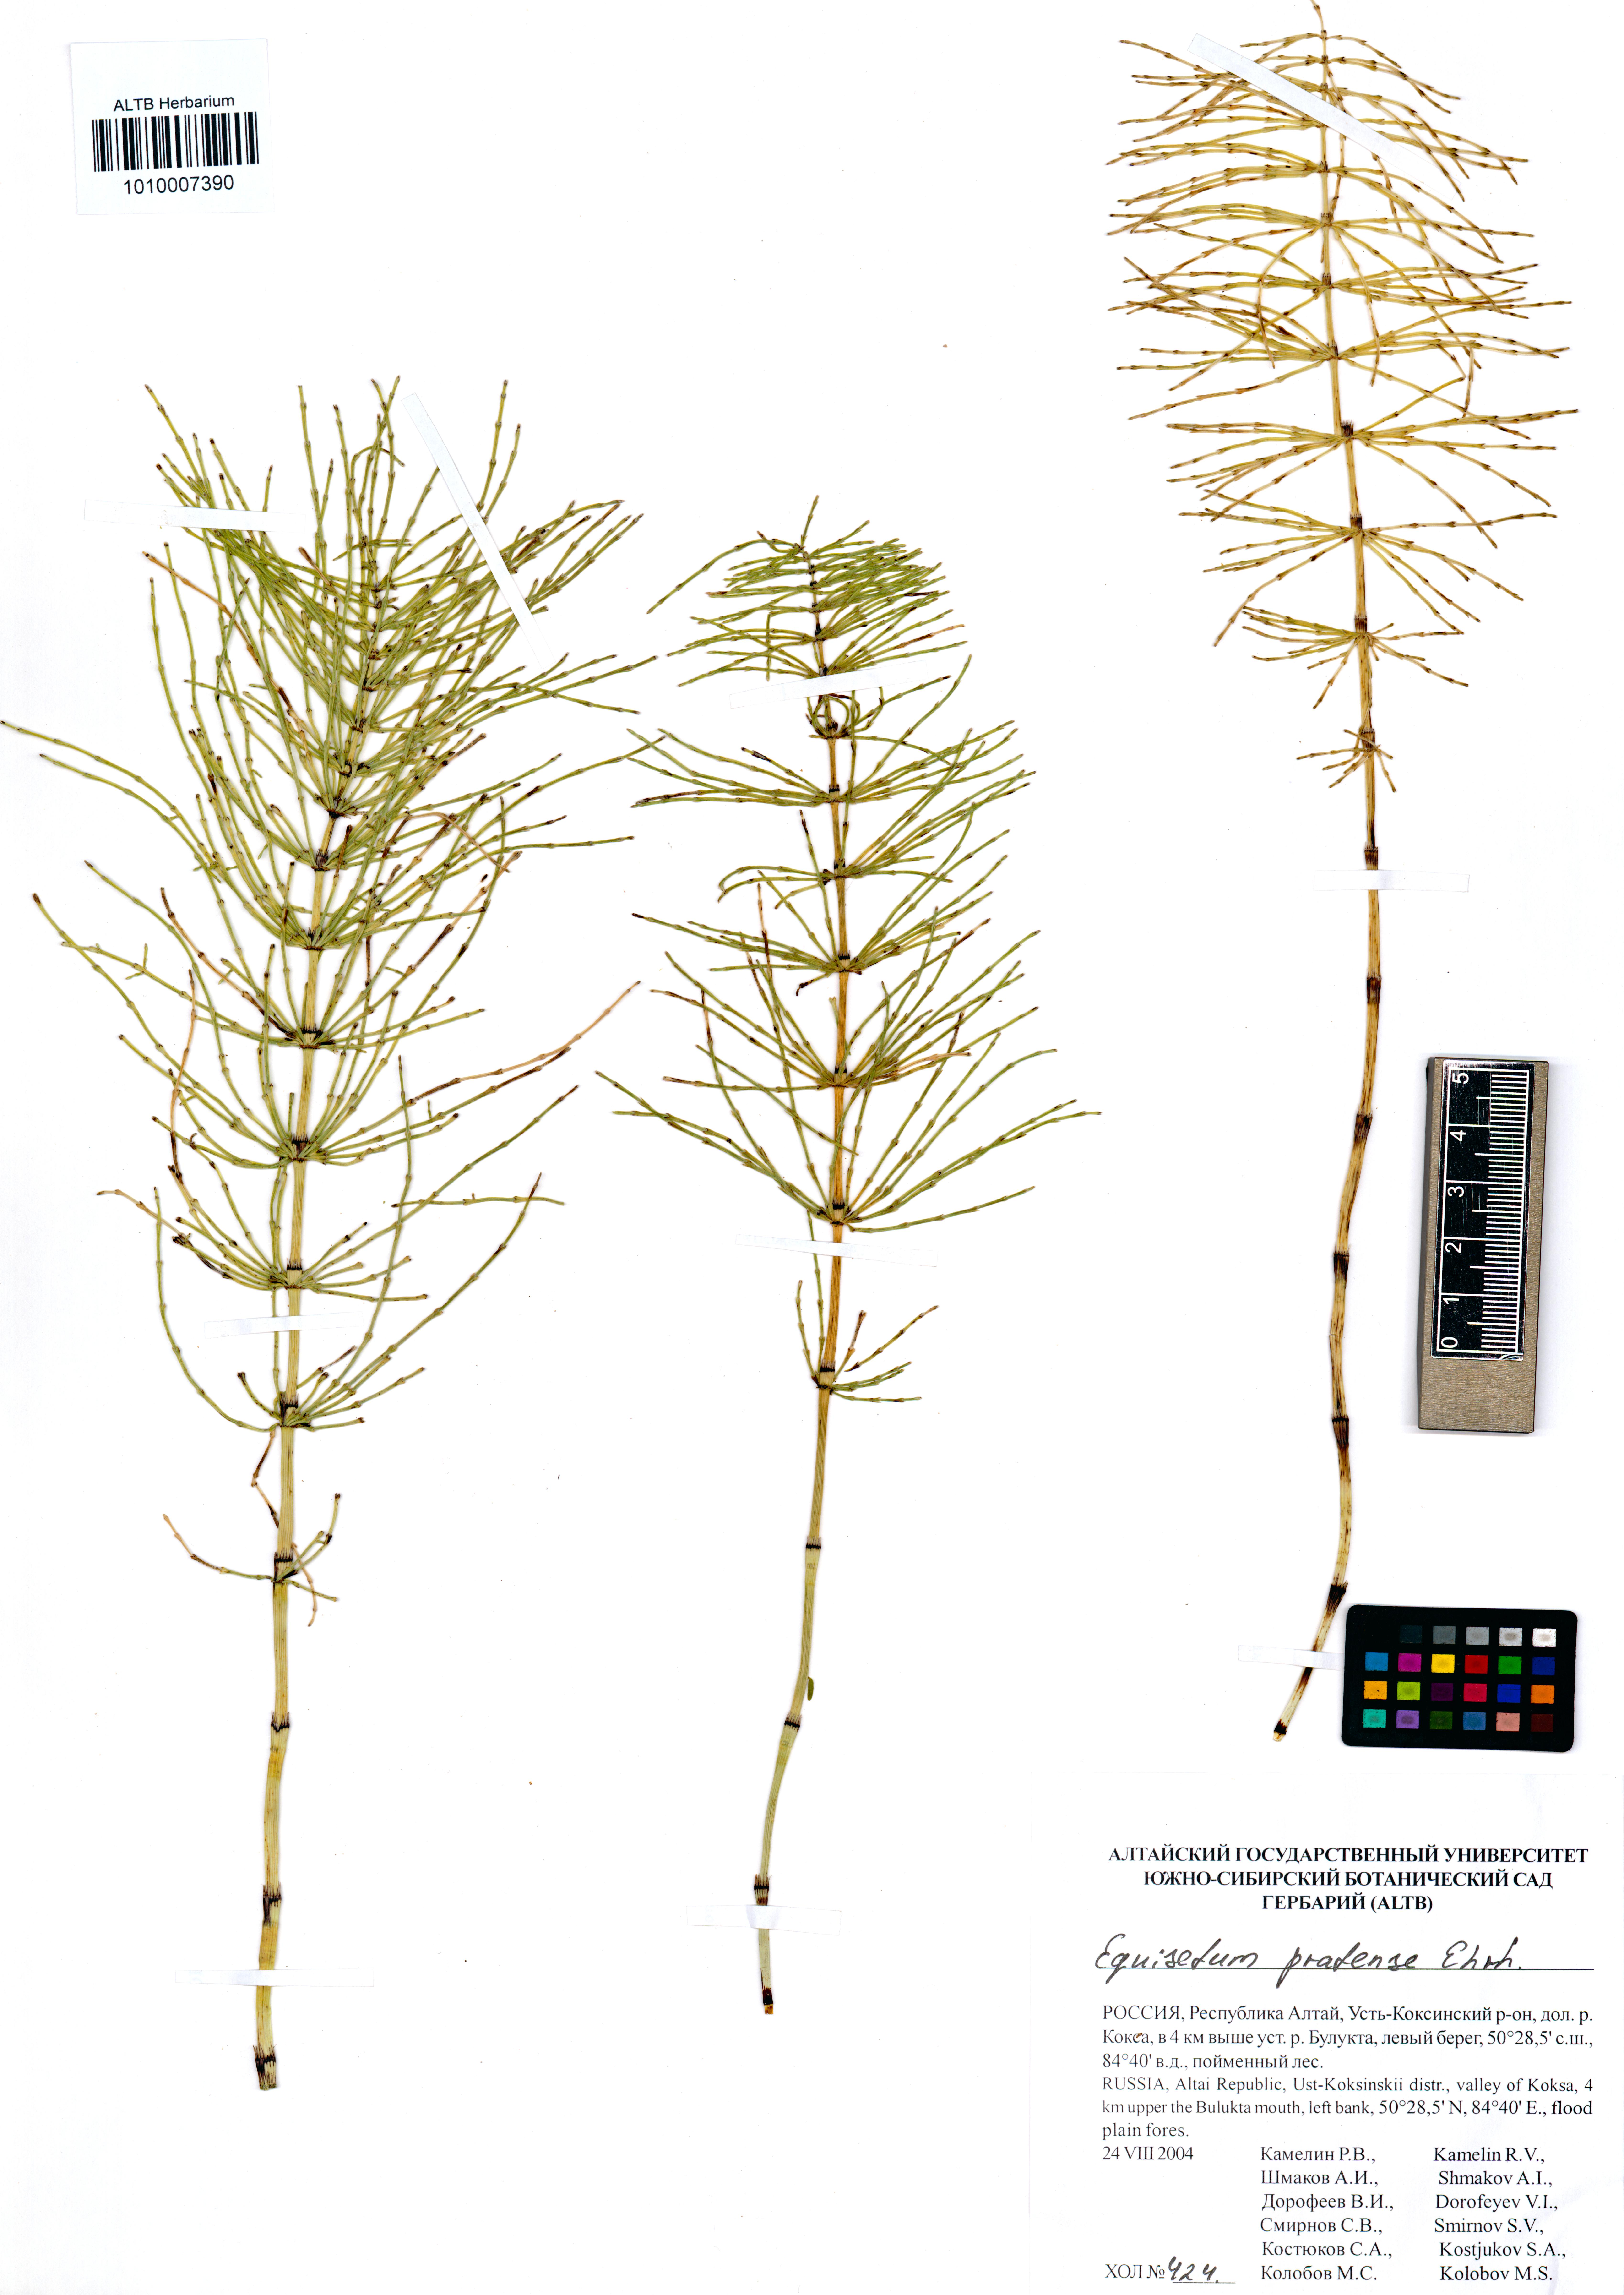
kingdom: Plantae
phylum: Tracheophyta
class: Polypodiopsida
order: Equisetales
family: Equisetaceae
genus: Equisetum
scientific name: Equisetum pratense
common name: Meadow horsetail
